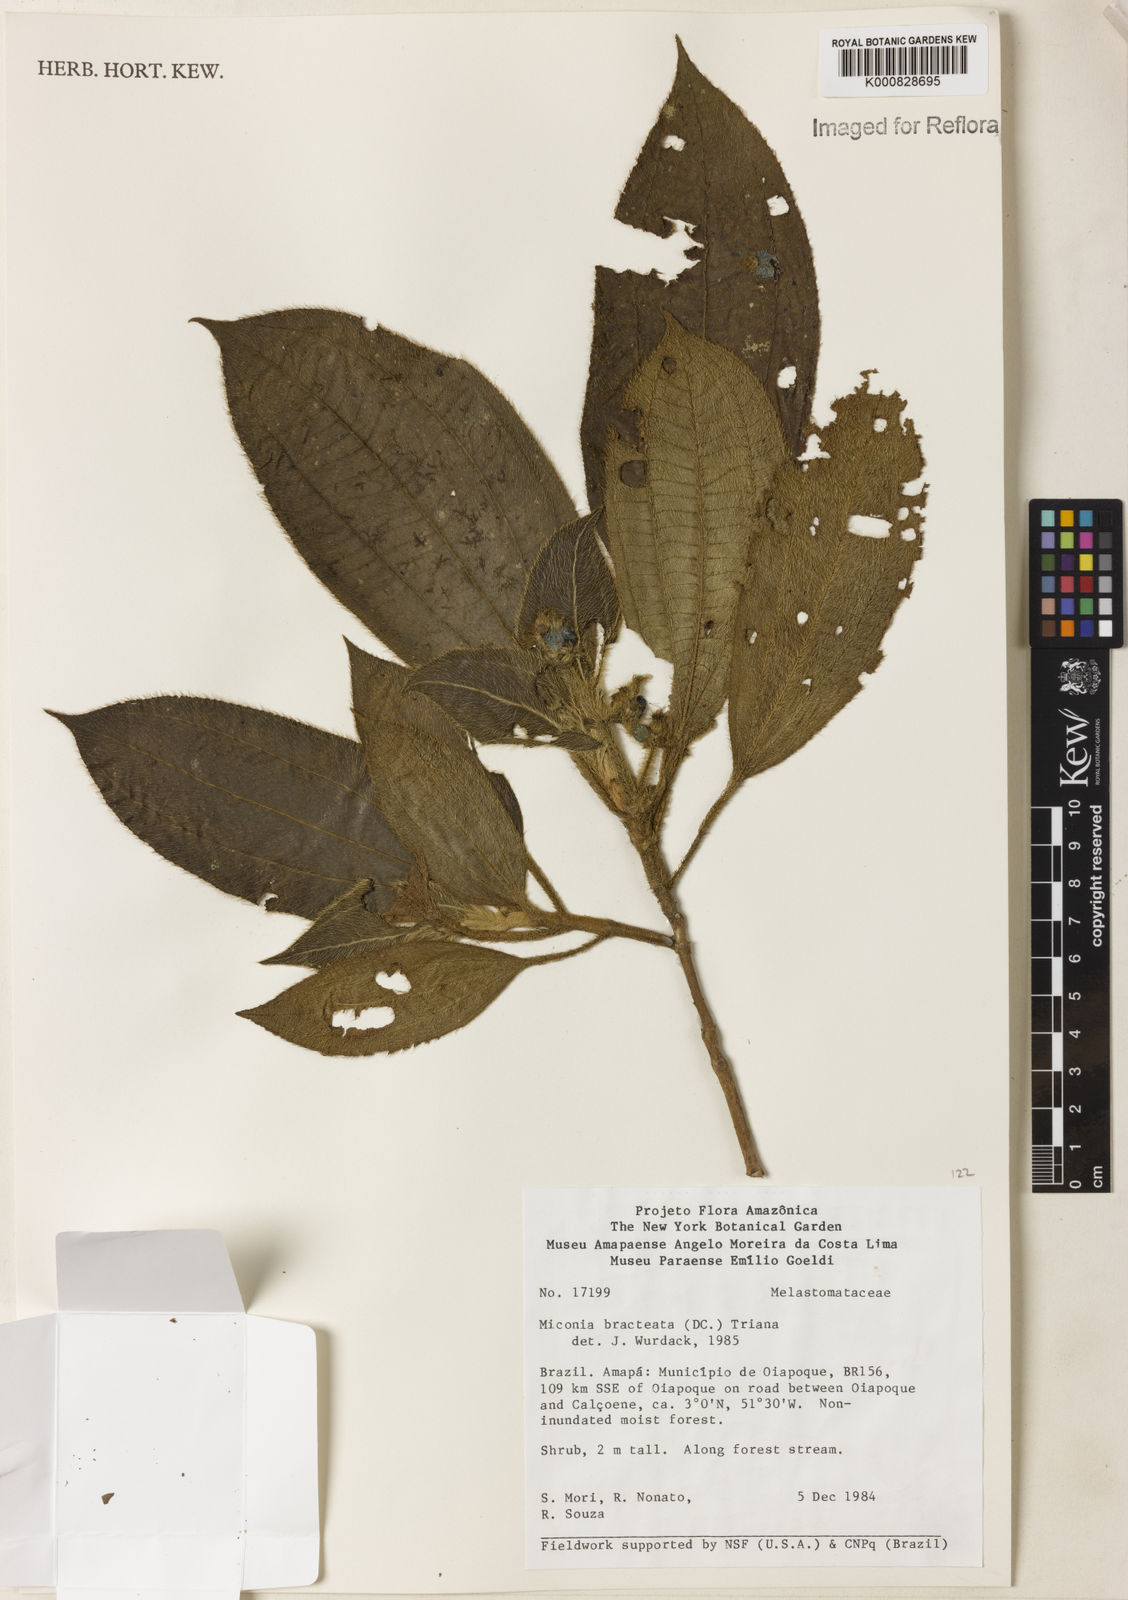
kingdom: Plantae
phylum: Tracheophyta
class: Magnoliopsida
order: Myrtales
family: Melastomataceae
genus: Miconia
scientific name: Miconia bracteata
